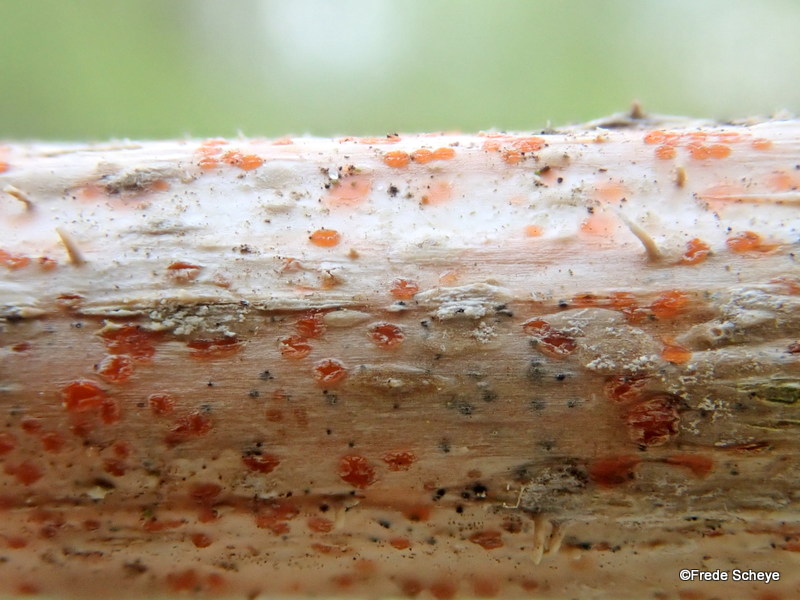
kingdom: Fungi
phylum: Ascomycota
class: Leotiomycetes
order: Helotiales
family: Calloriaceae
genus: Calloria
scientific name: Calloria urticae
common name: nælde-orangeskive
